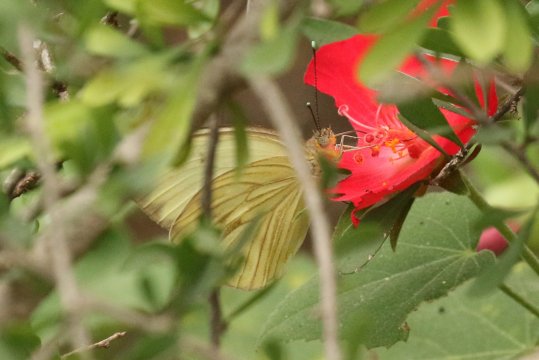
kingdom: Animalia
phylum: Arthropoda
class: Insecta
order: Lepidoptera
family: Pieridae
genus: Ascia
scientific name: Ascia monuste
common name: Great Southern White
